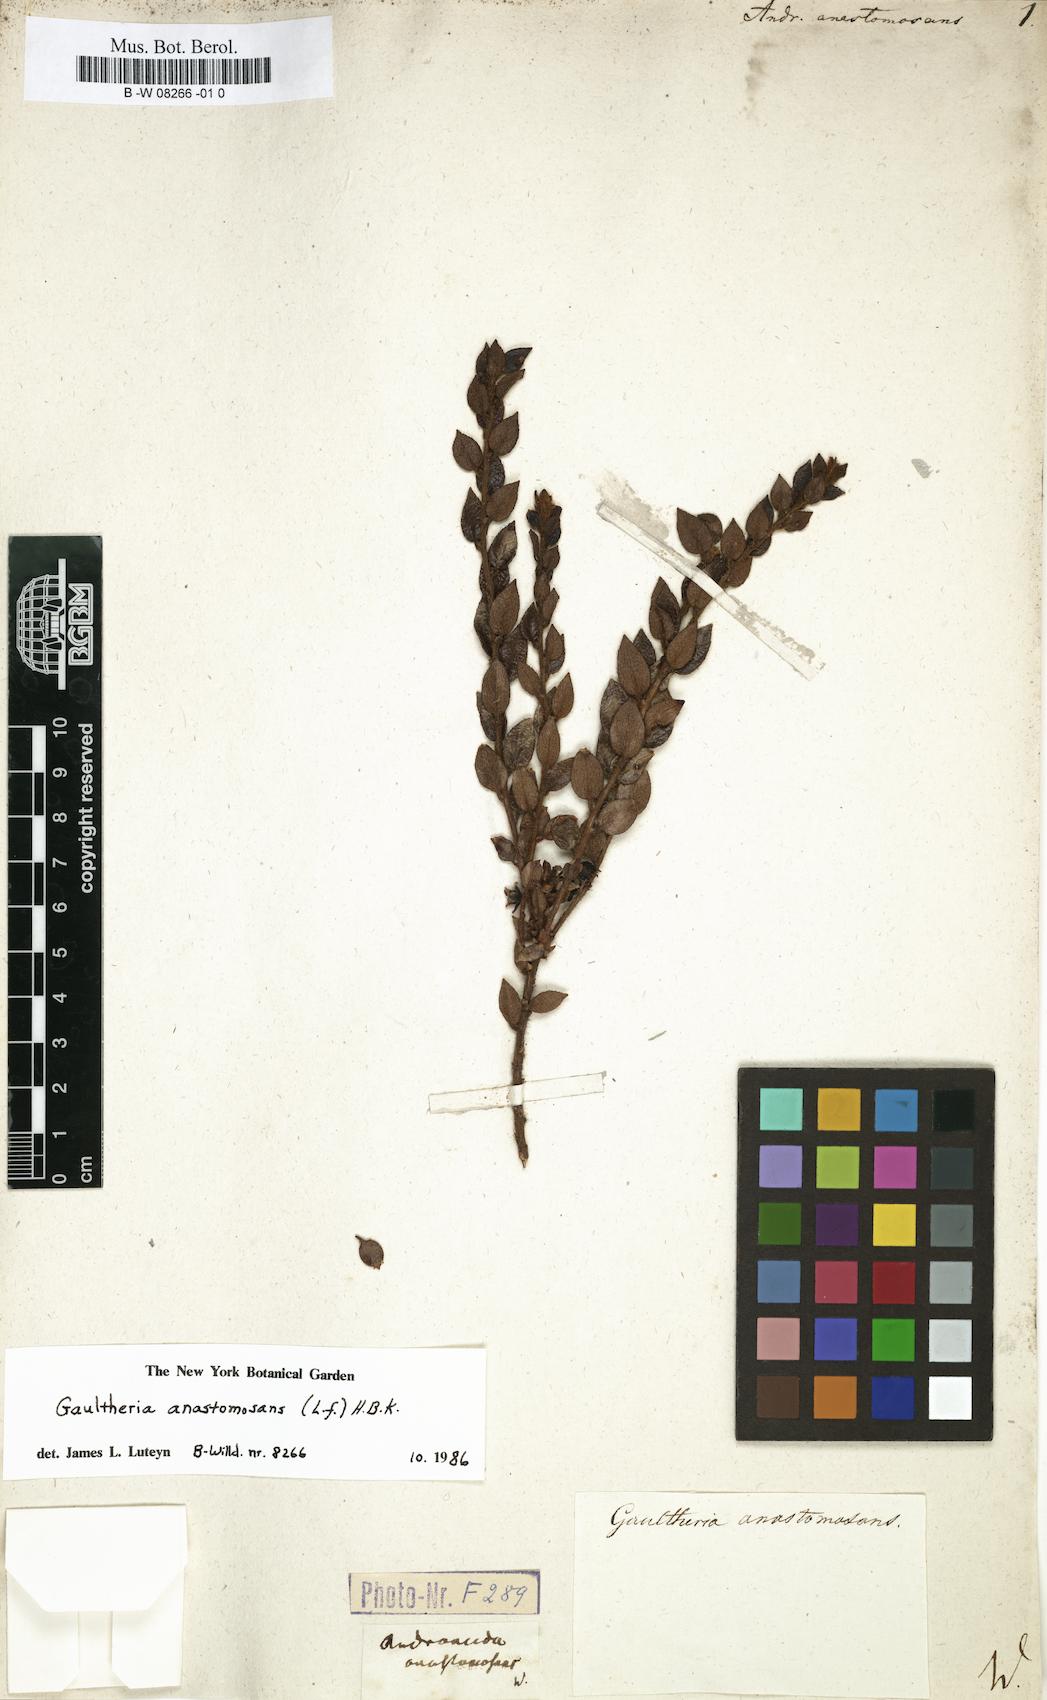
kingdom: Plantae
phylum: Tracheophyta
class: Magnoliopsida
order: Ericales
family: Ericaceae
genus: Gaultheria
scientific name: Gaultheria anastomosans
